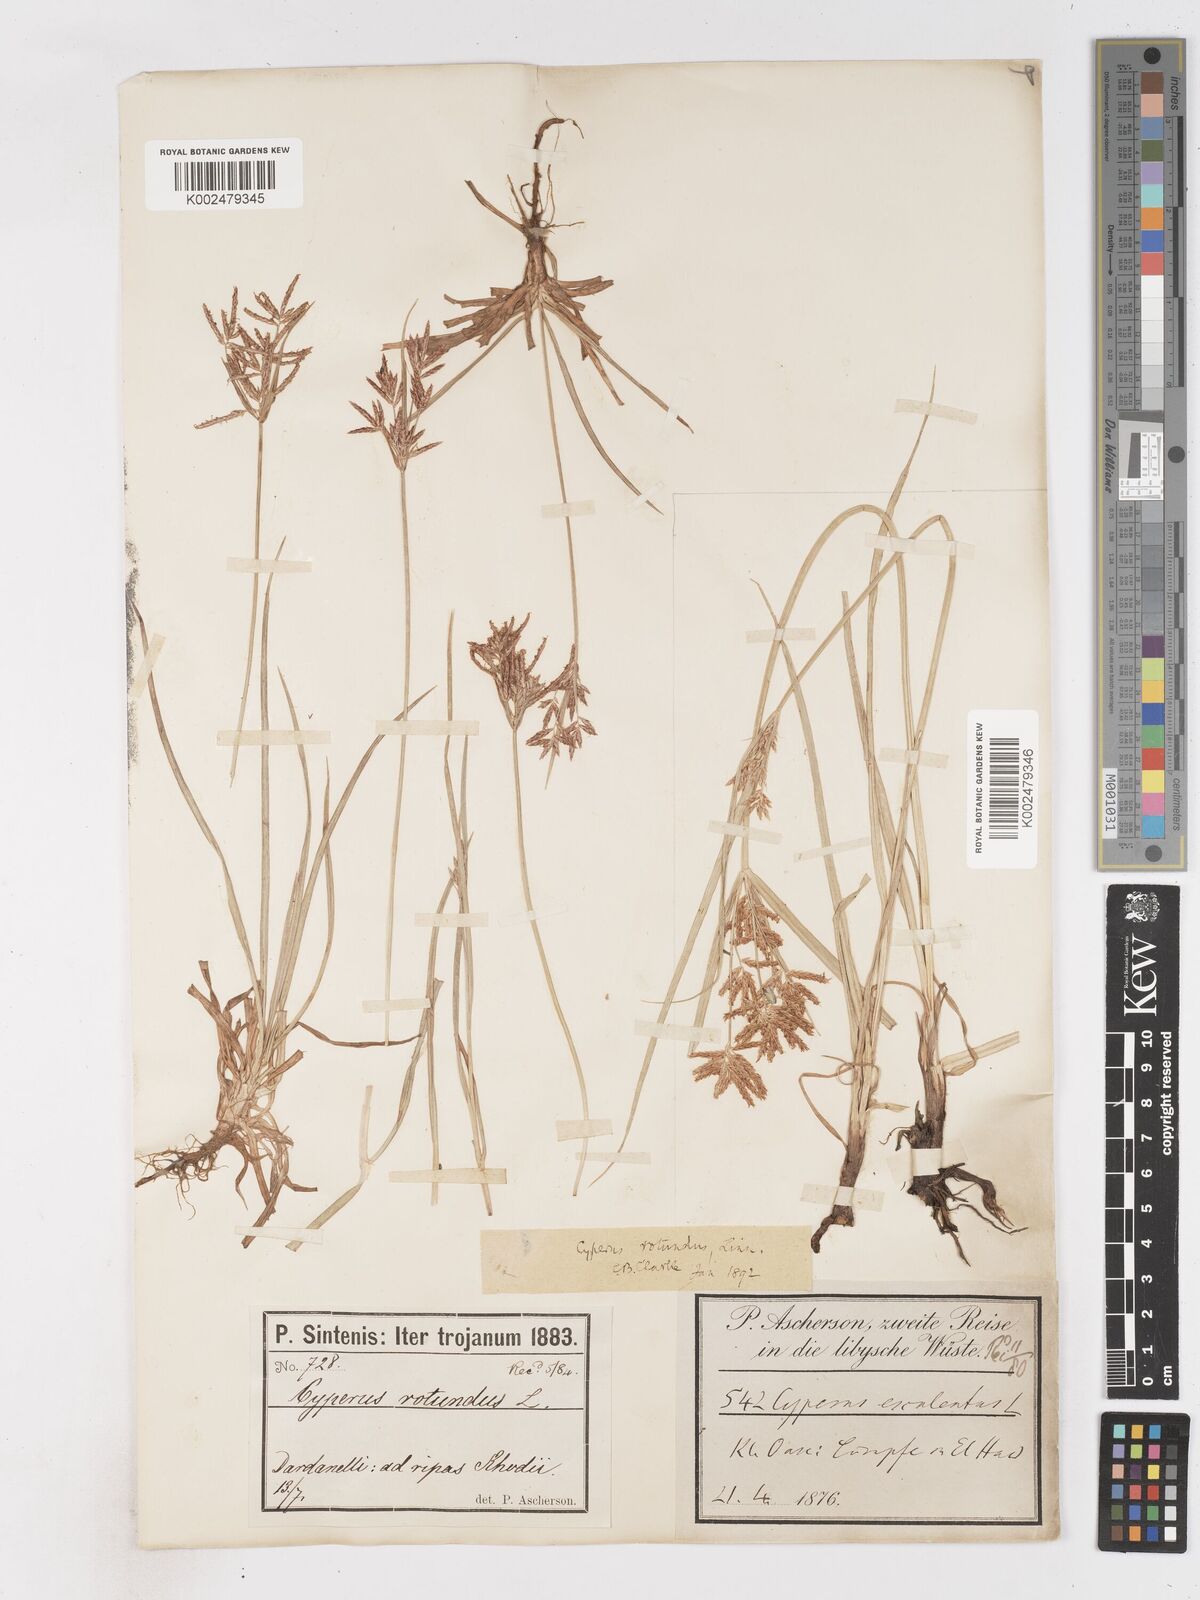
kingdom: Plantae
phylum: Tracheophyta
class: Liliopsida
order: Poales
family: Cyperaceae
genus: Cyperus
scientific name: Cyperus rotundus
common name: Nutgrass
